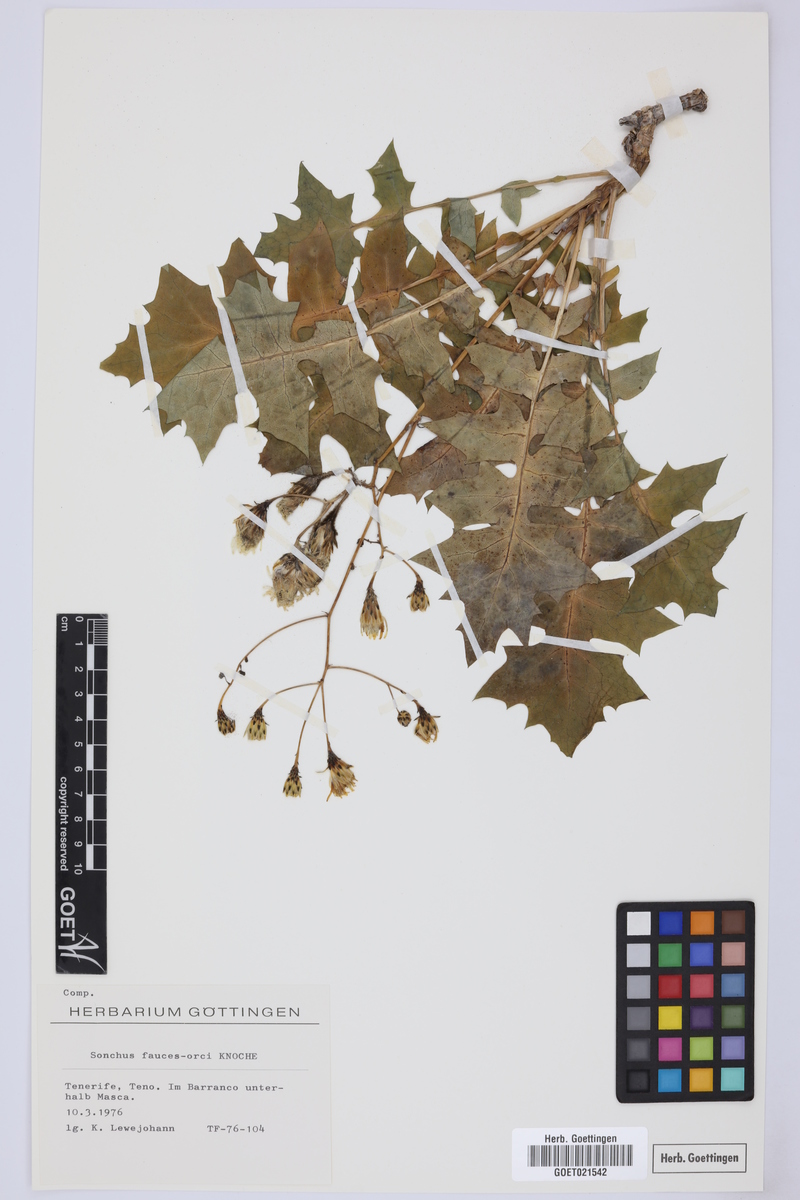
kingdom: Plantae
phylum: Tracheophyta
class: Magnoliopsida
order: Asterales
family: Asteraceae
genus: Sonchus
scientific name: Sonchus fauces-orci
